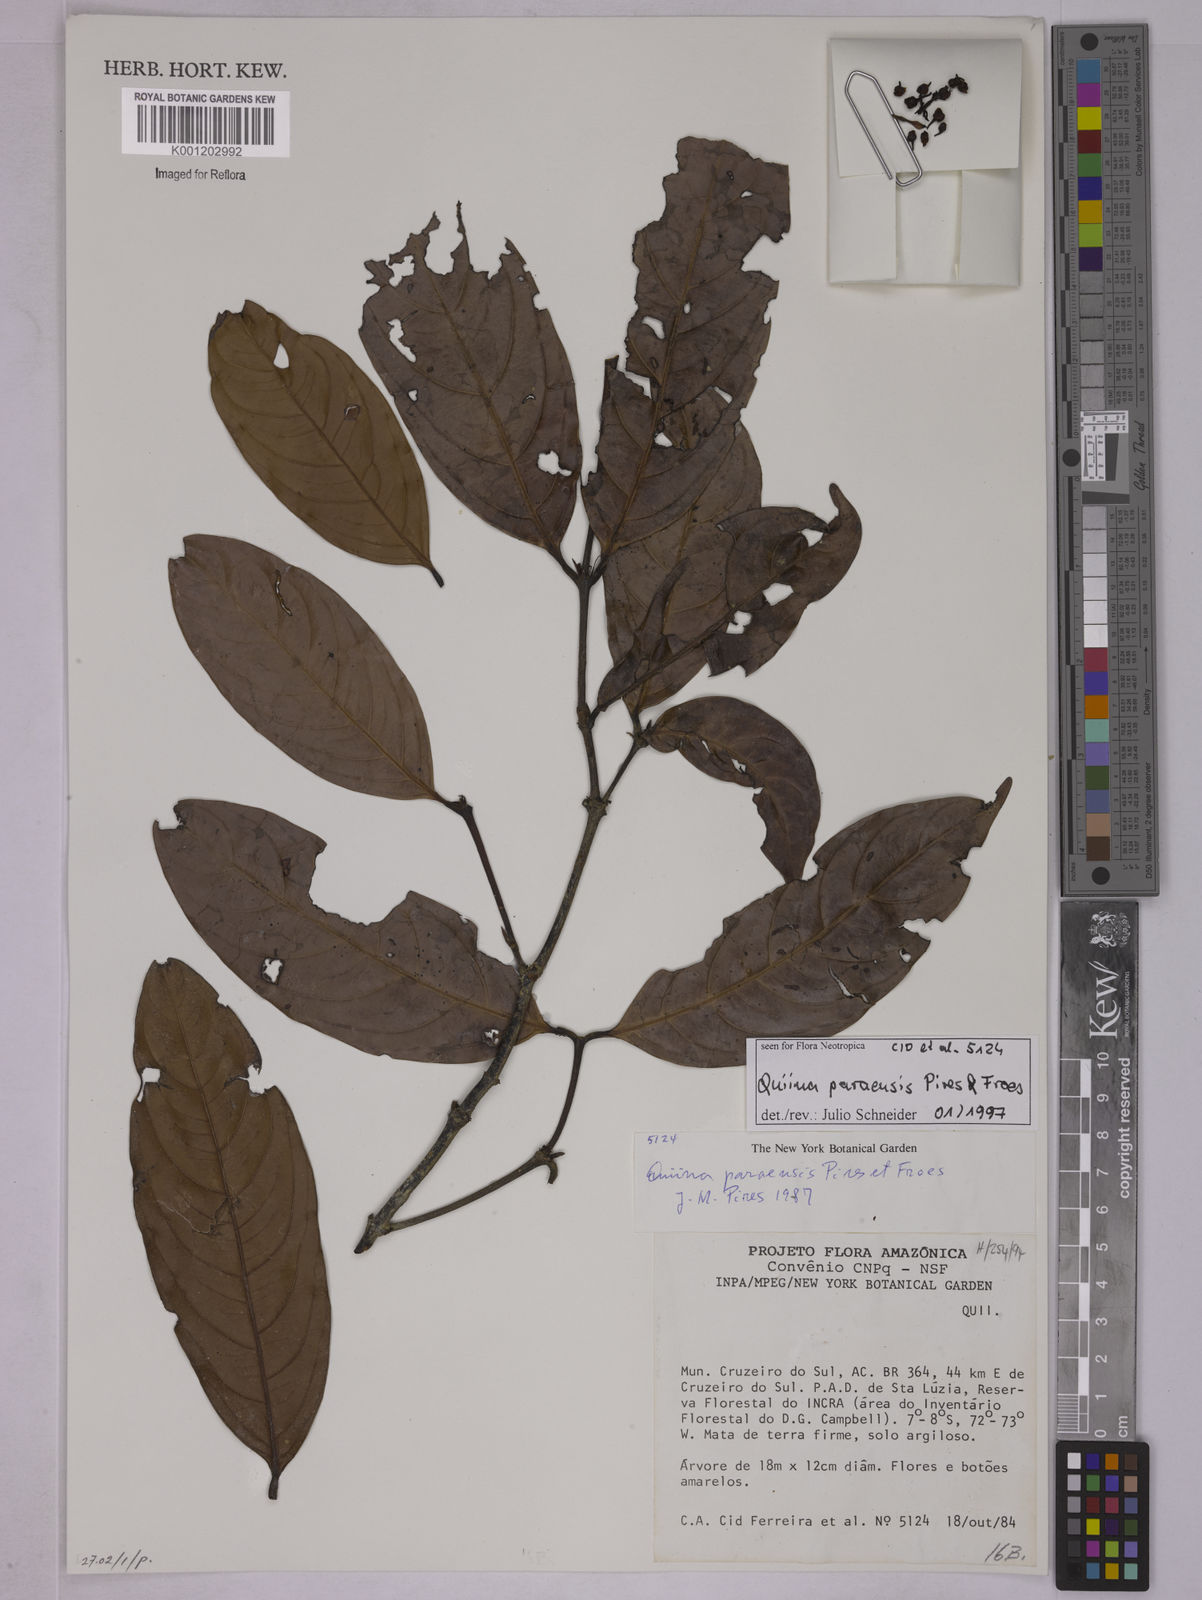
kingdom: Plantae
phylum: Tracheophyta
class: Magnoliopsida
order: Malpighiales
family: Quiinaceae
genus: Quiina
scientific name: Quiina paraensis
